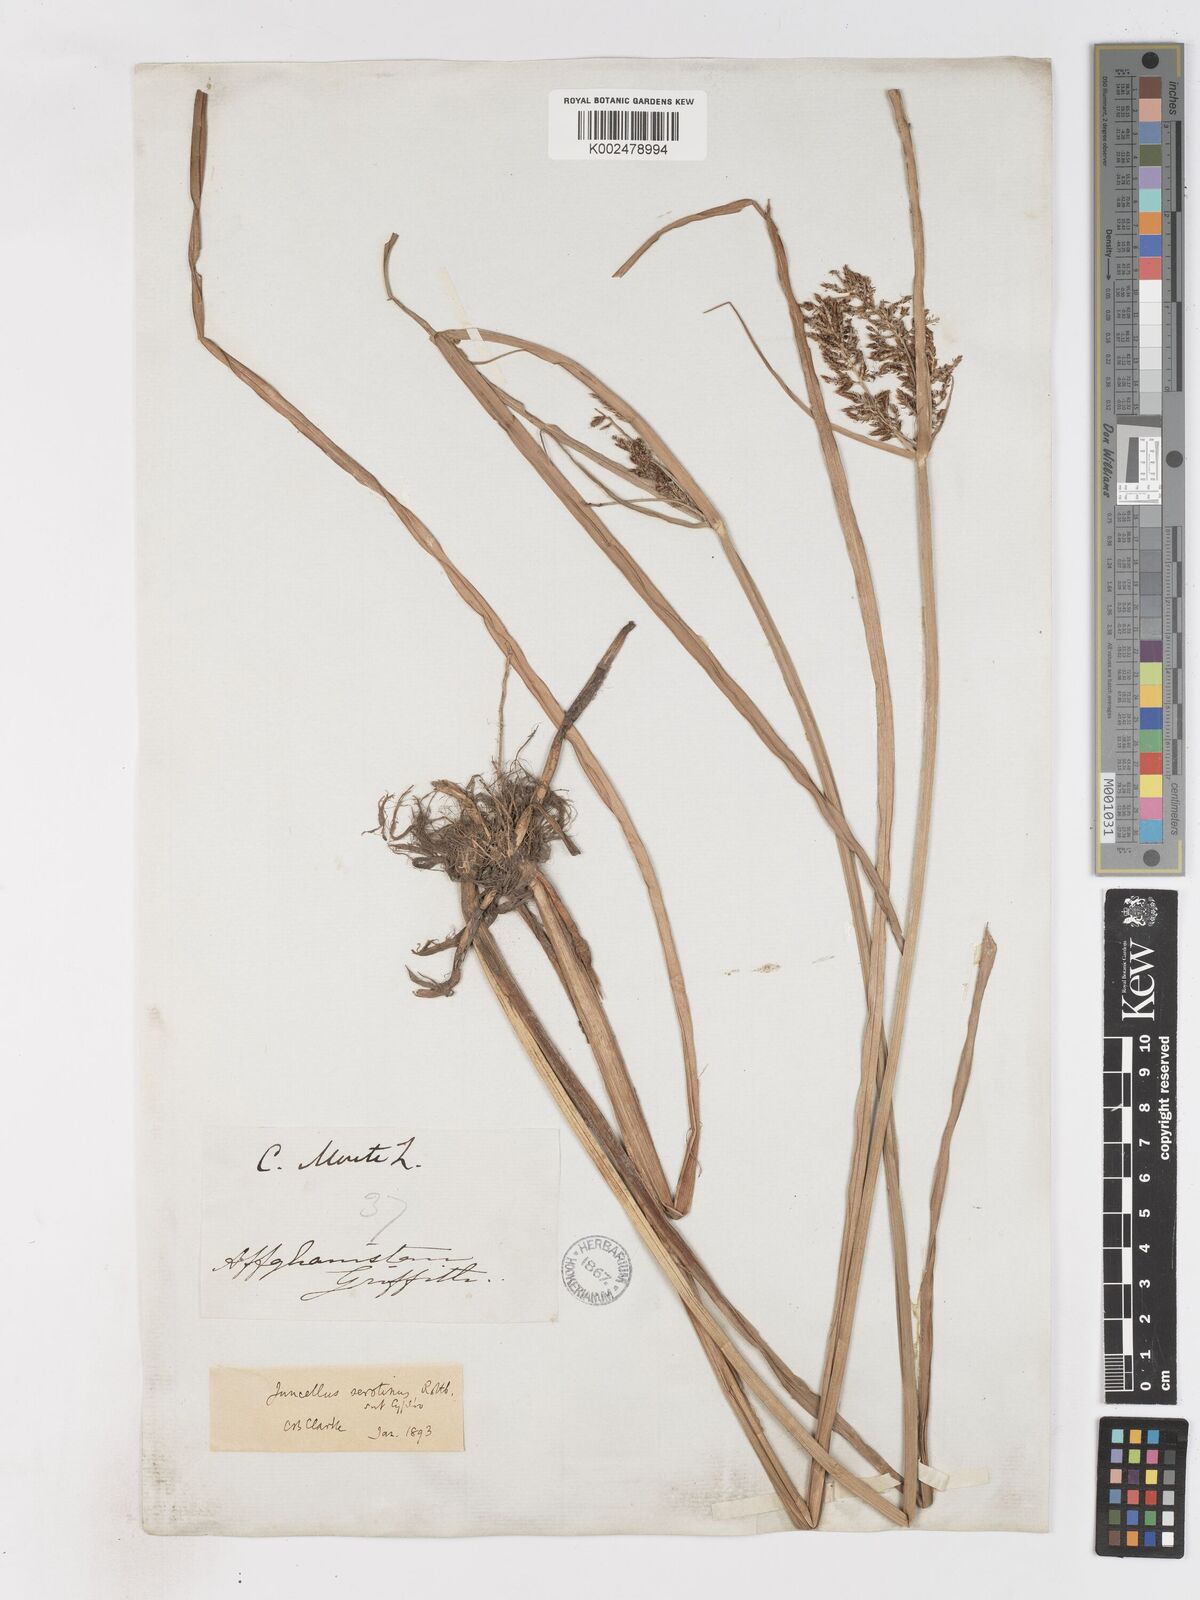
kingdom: Plantae
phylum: Tracheophyta
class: Liliopsida
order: Poales
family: Cyperaceae
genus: Cyperus
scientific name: Cyperus serotinus
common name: Tidalmarsh flatsedge
